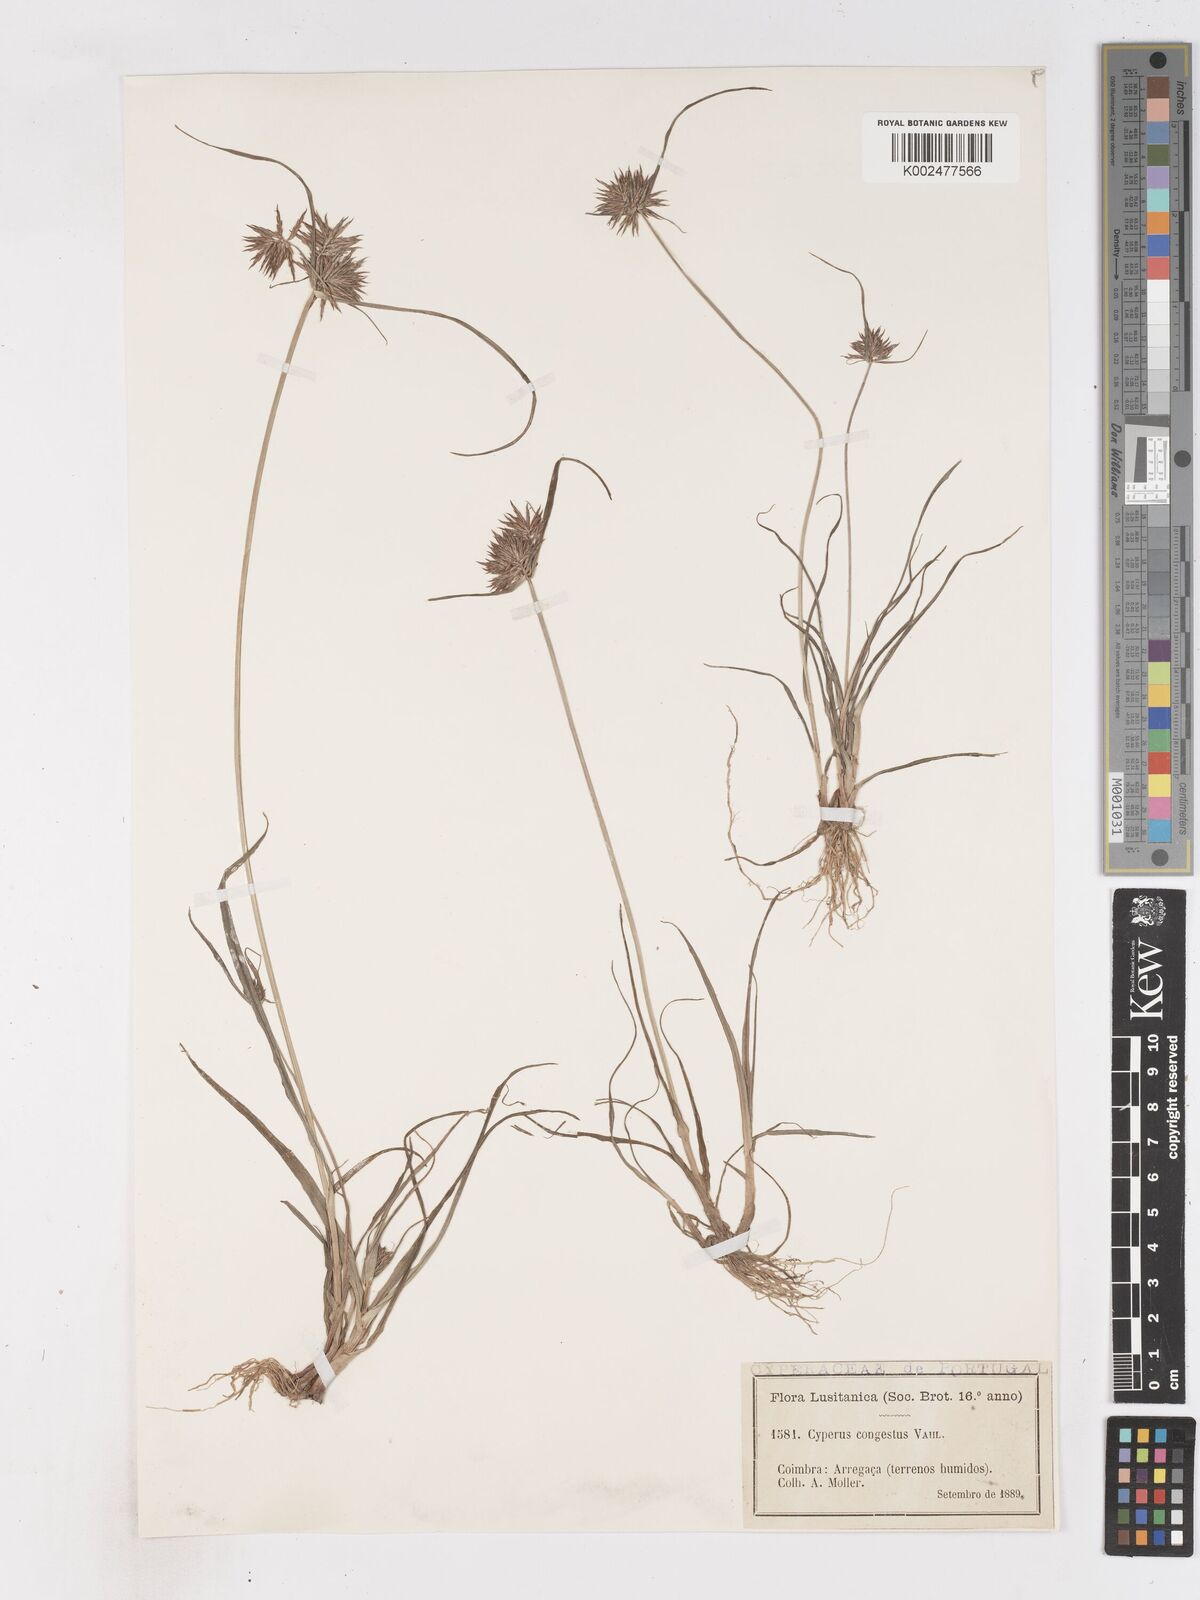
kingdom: Plantae
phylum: Tracheophyta
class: Liliopsida
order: Poales
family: Cyperaceae
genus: Cyperus
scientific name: Cyperus congestus
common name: Dense flat sedge
